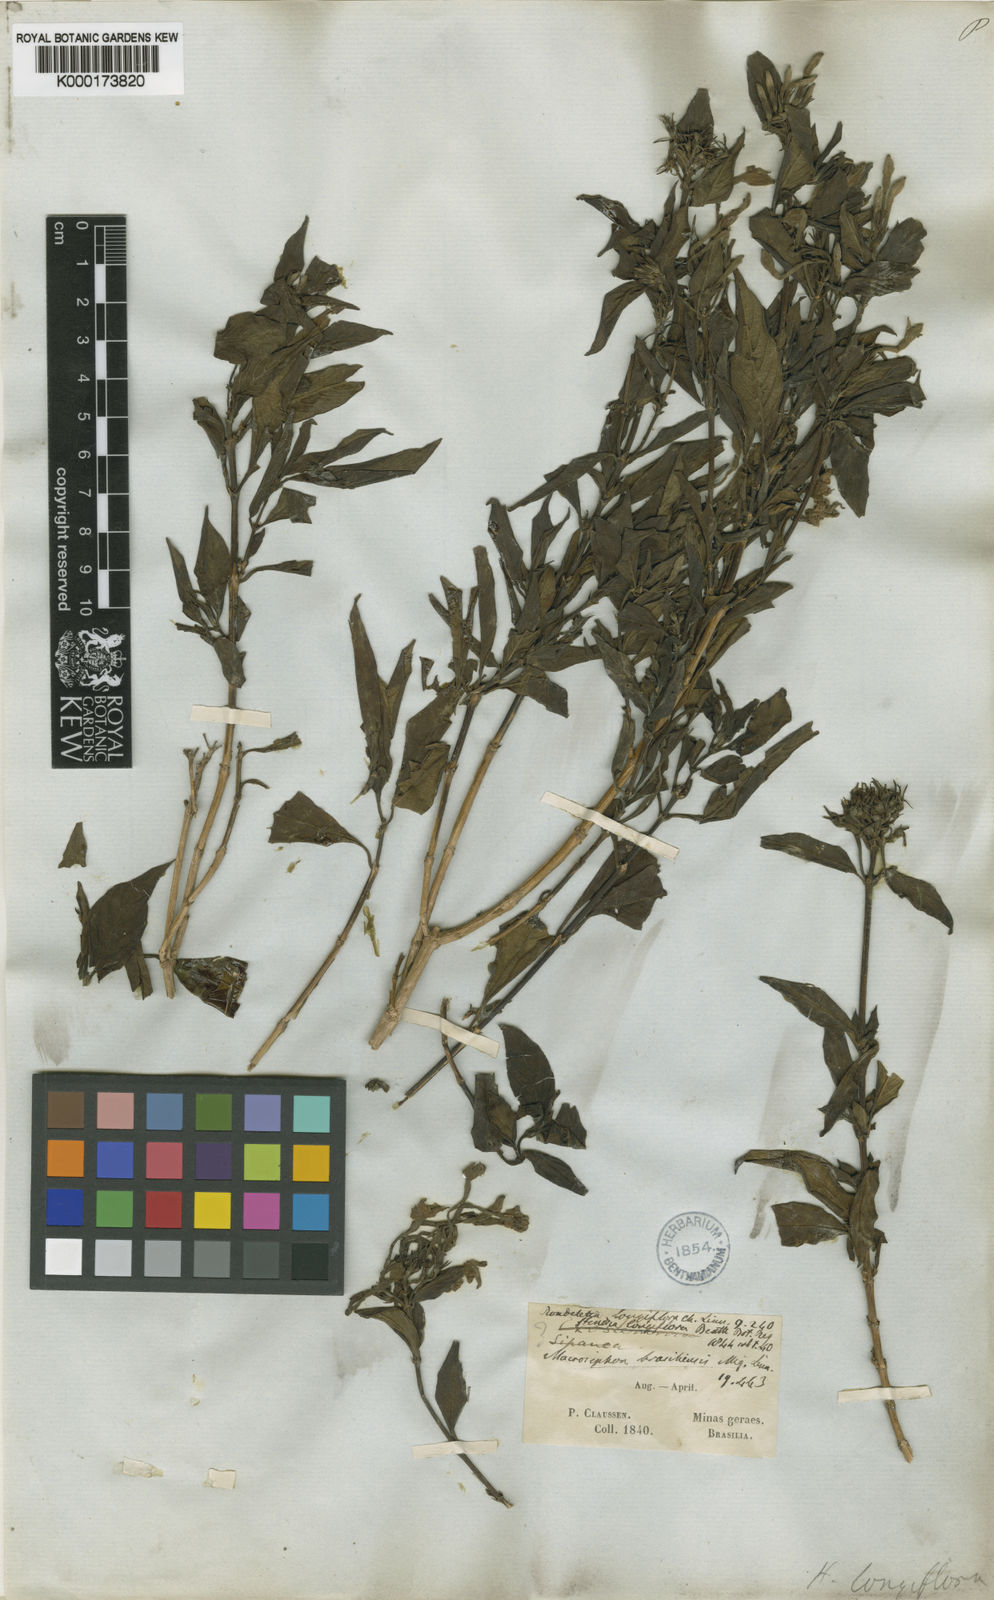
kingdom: Plantae
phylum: Tracheophyta
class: Magnoliopsida
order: Gentianales
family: Rubiaceae
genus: Hindsia
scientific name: Hindsia longiflora
